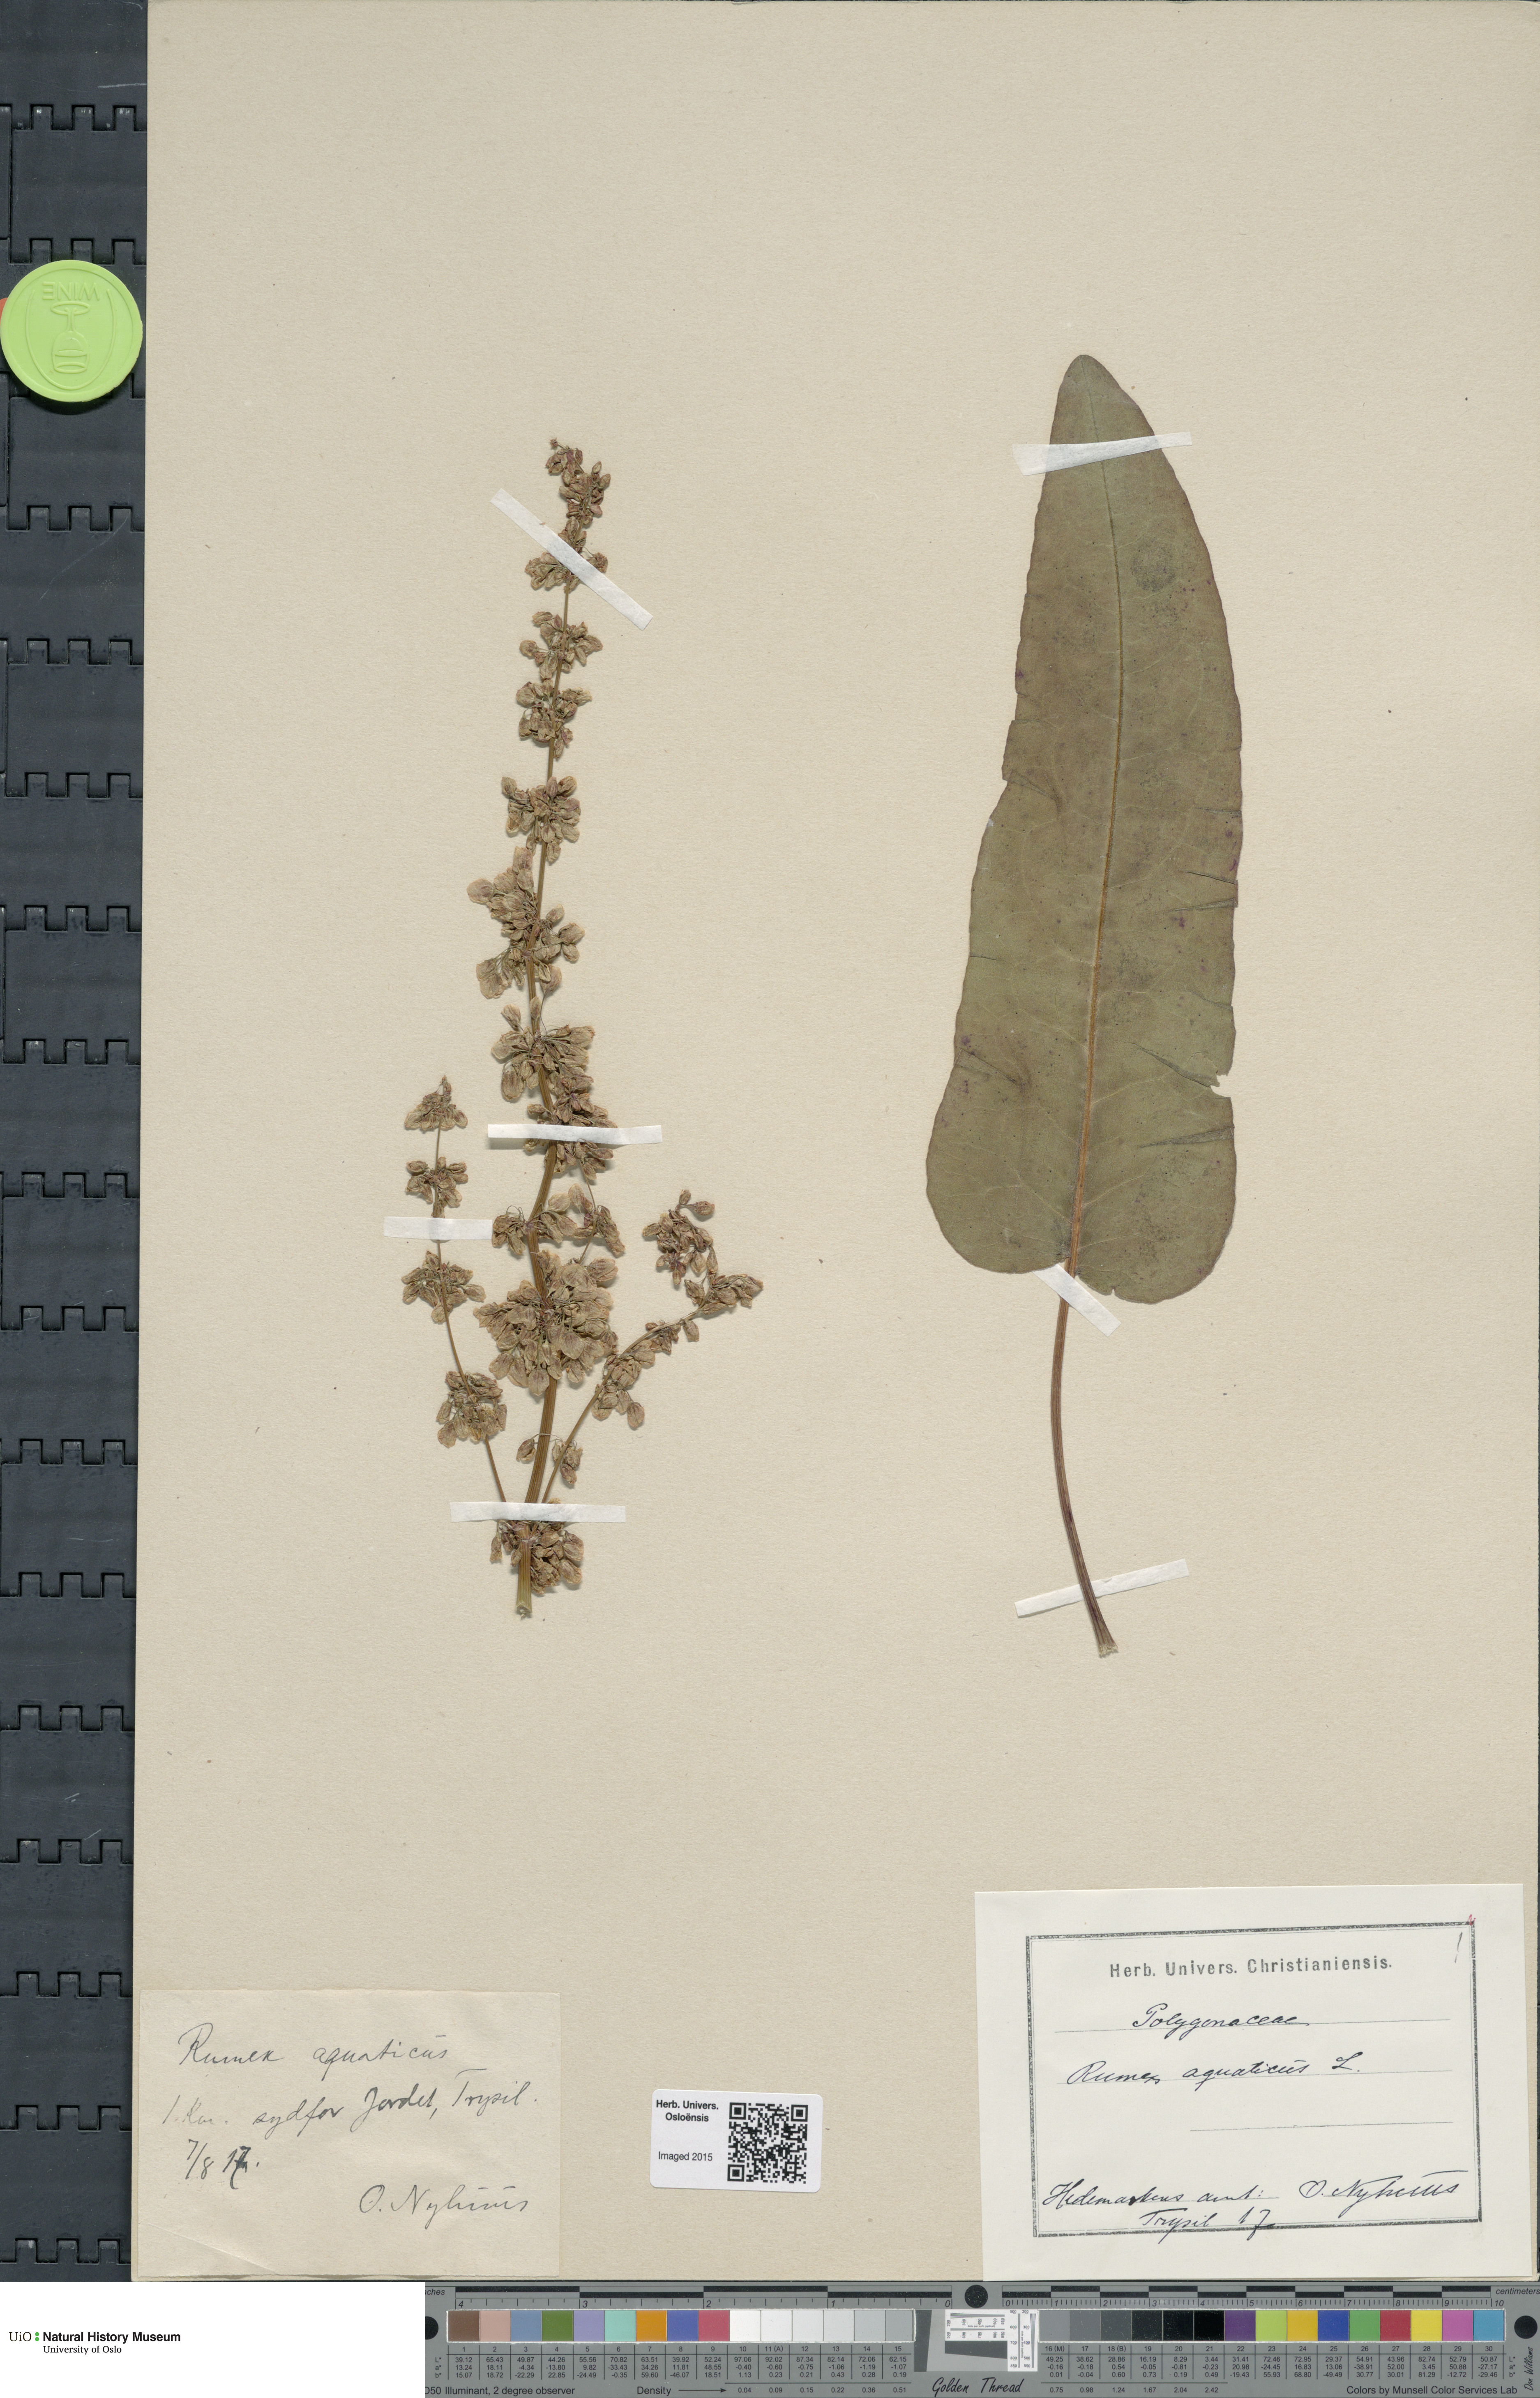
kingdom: Plantae
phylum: Tracheophyta
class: Magnoliopsida
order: Caryophyllales
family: Polygonaceae
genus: Rumex
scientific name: Rumex aquaticus
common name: Scottish dock
